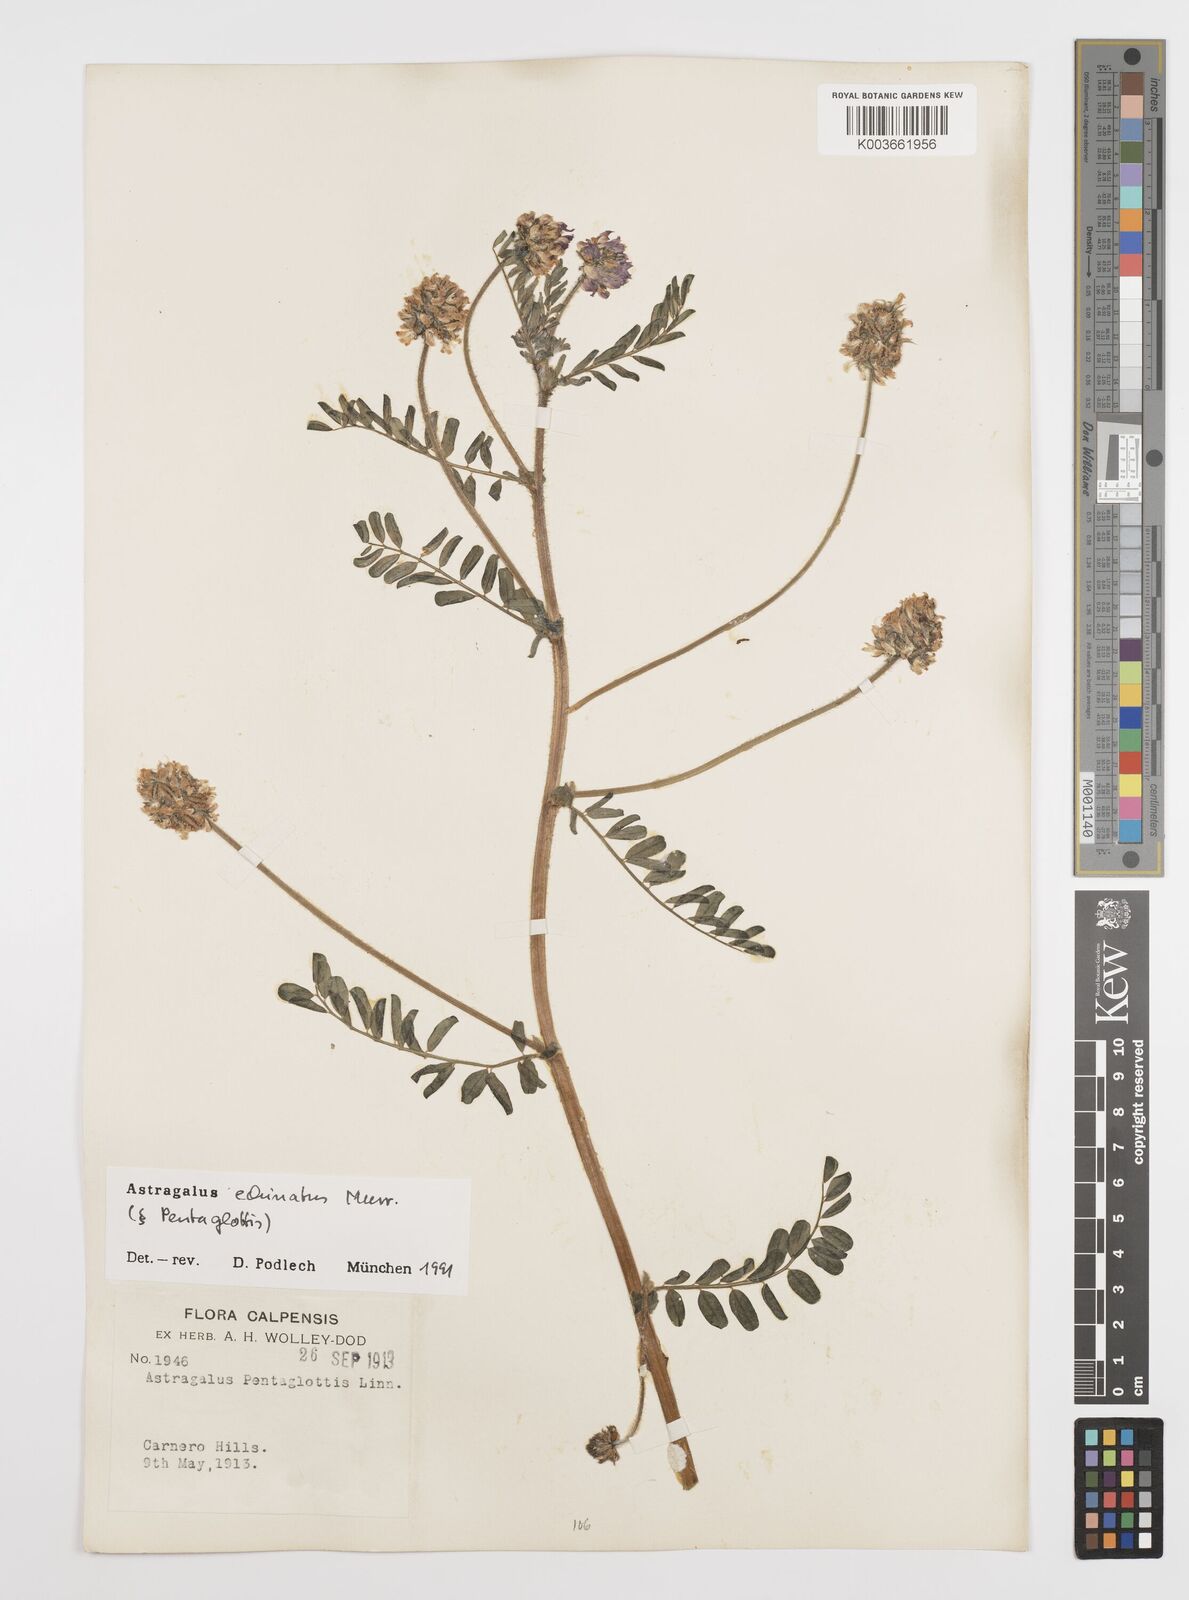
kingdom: Plantae
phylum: Tracheophyta
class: Magnoliopsida
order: Fabales
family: Fabaceae
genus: Astragalus
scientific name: Astragalus echinatus
